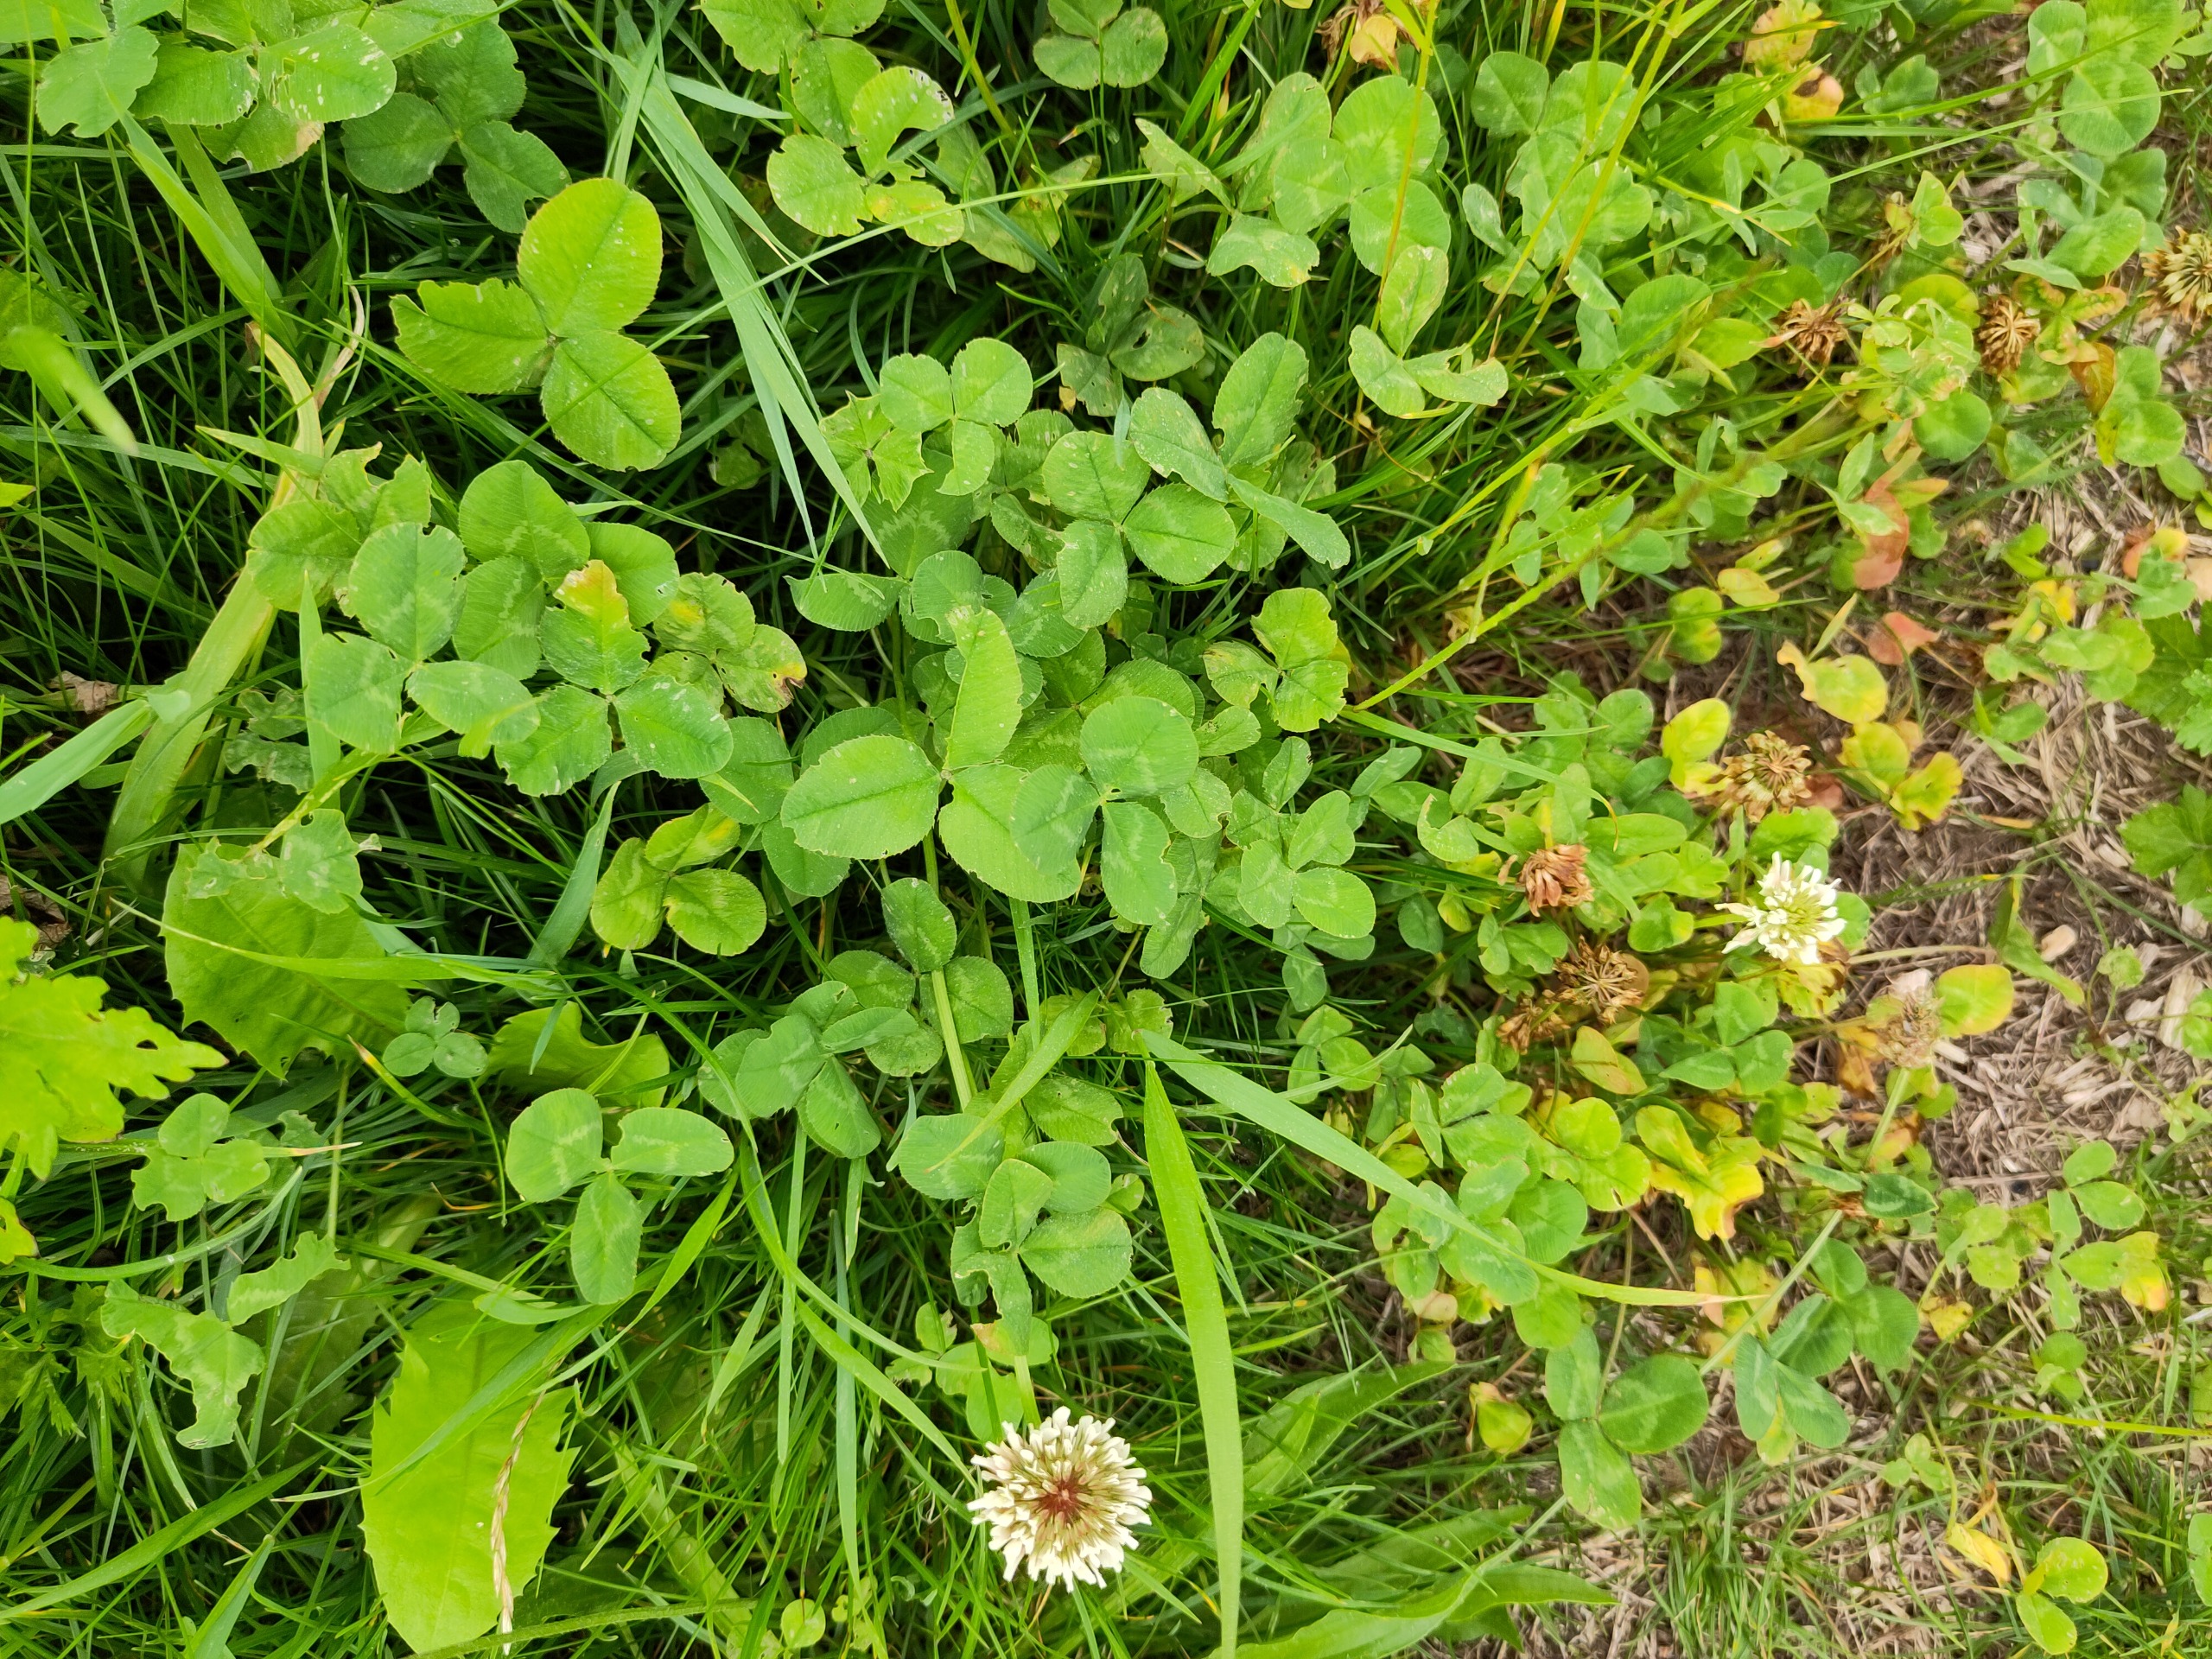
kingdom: Plantae
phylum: Tracheophyta
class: Magnoliopsida
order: Fabales
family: Fabaceae
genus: Trifolium
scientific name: Trifolium repens
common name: Hvid-kløver
